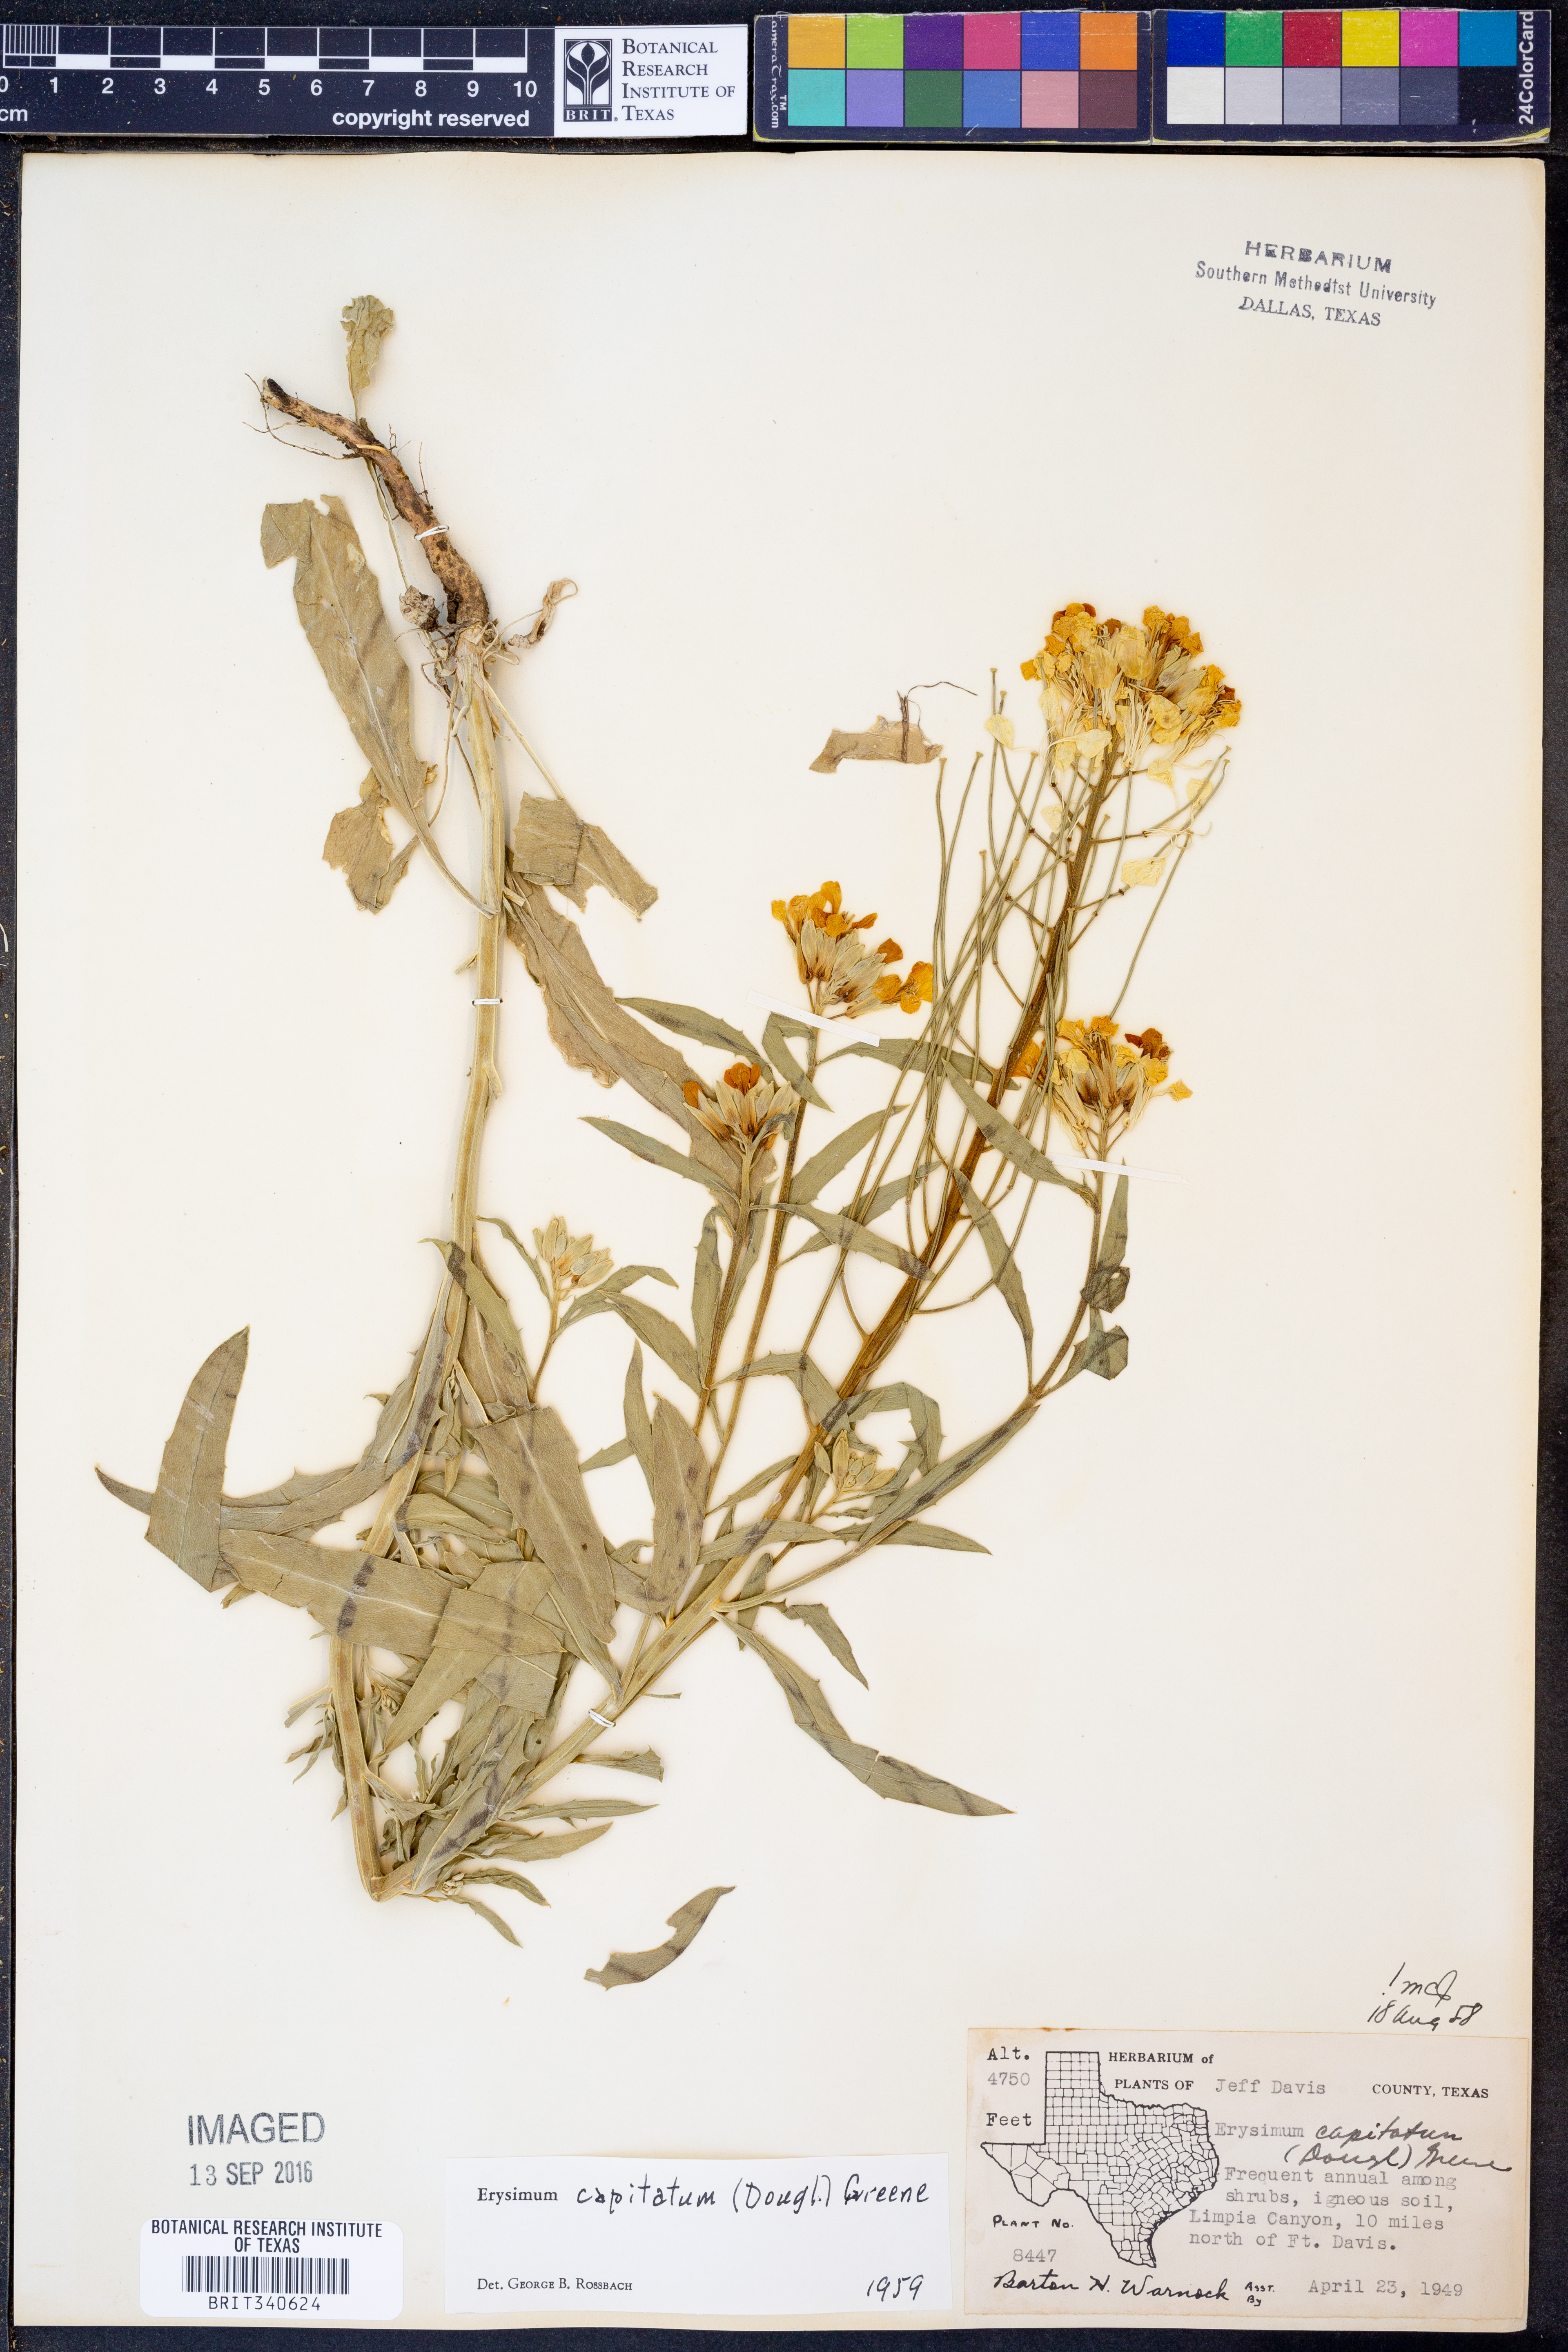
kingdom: Plantae
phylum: Tracheophyta
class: Magnoliopsida
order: Brassicales
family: Brassicaceae
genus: Erysimum
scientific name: Erysimum capitatum
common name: Western wallflower
